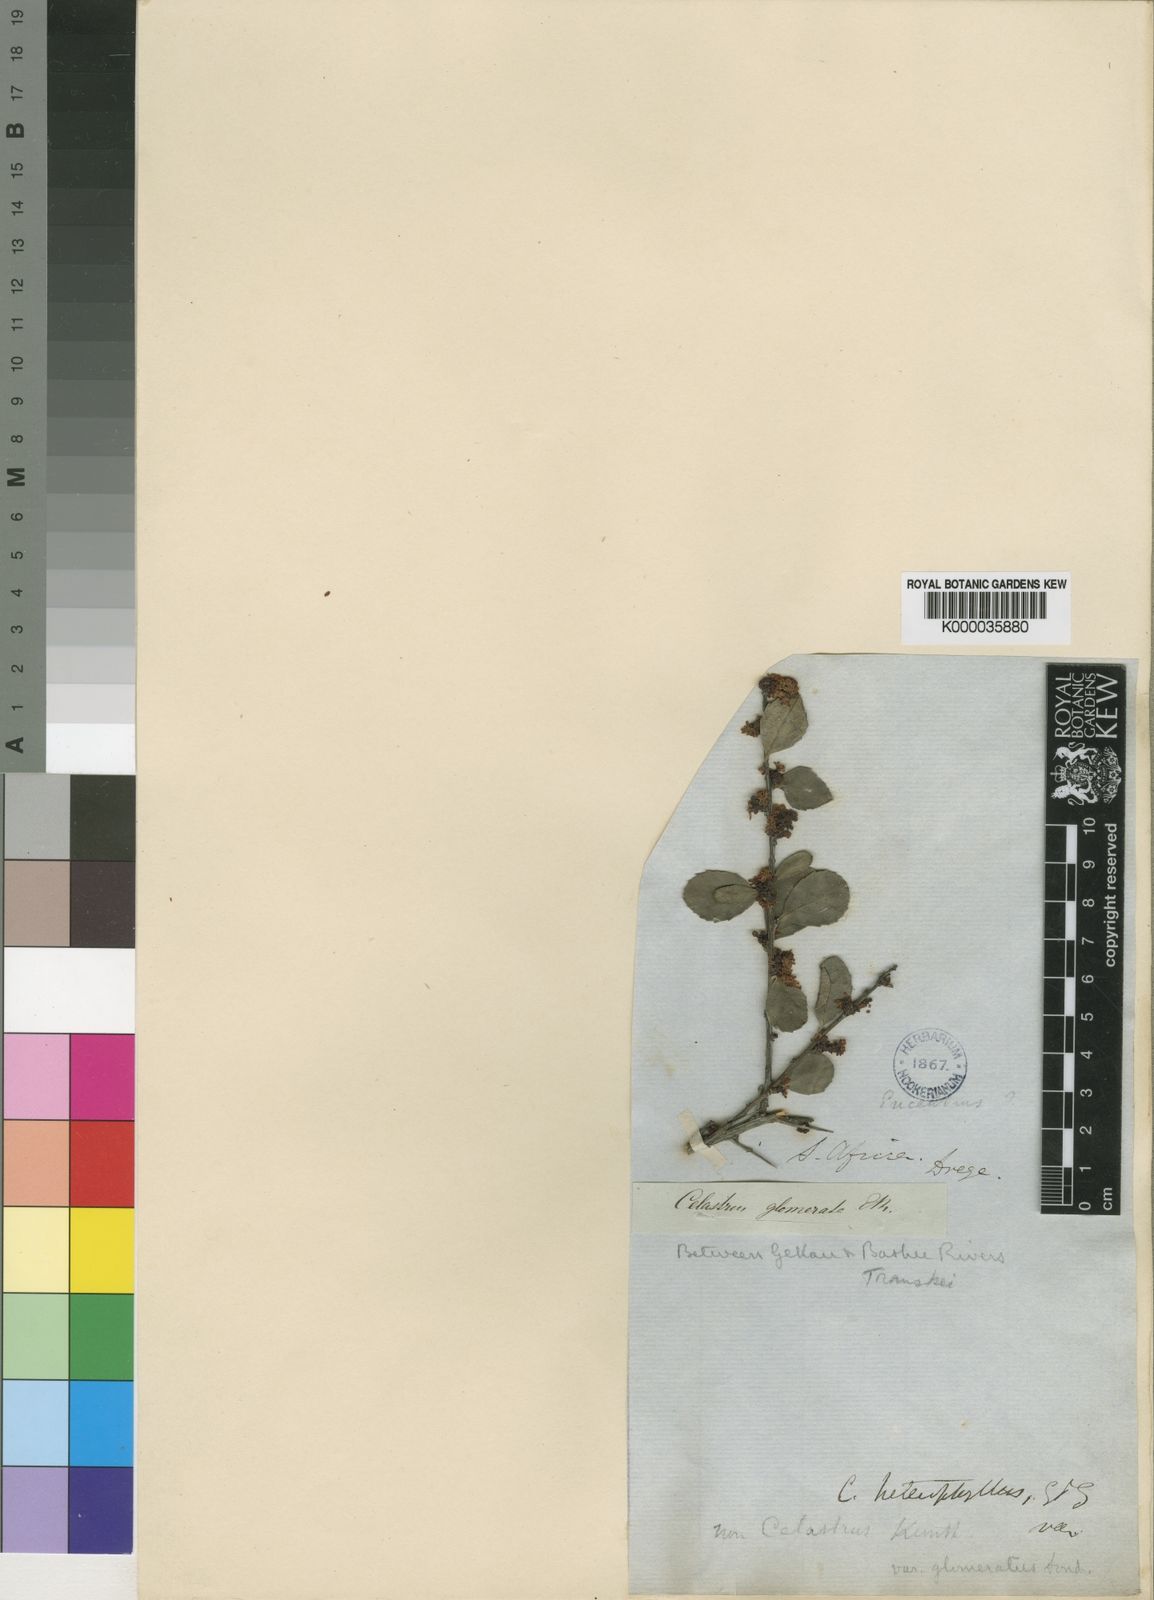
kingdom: Plantae
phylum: Tracheophyta
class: Magnoliopsida
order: Celastrales
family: Celastraceae
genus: Gymnosporia
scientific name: Gymnosporia heterophylla
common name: Angle-stem spikethorn
